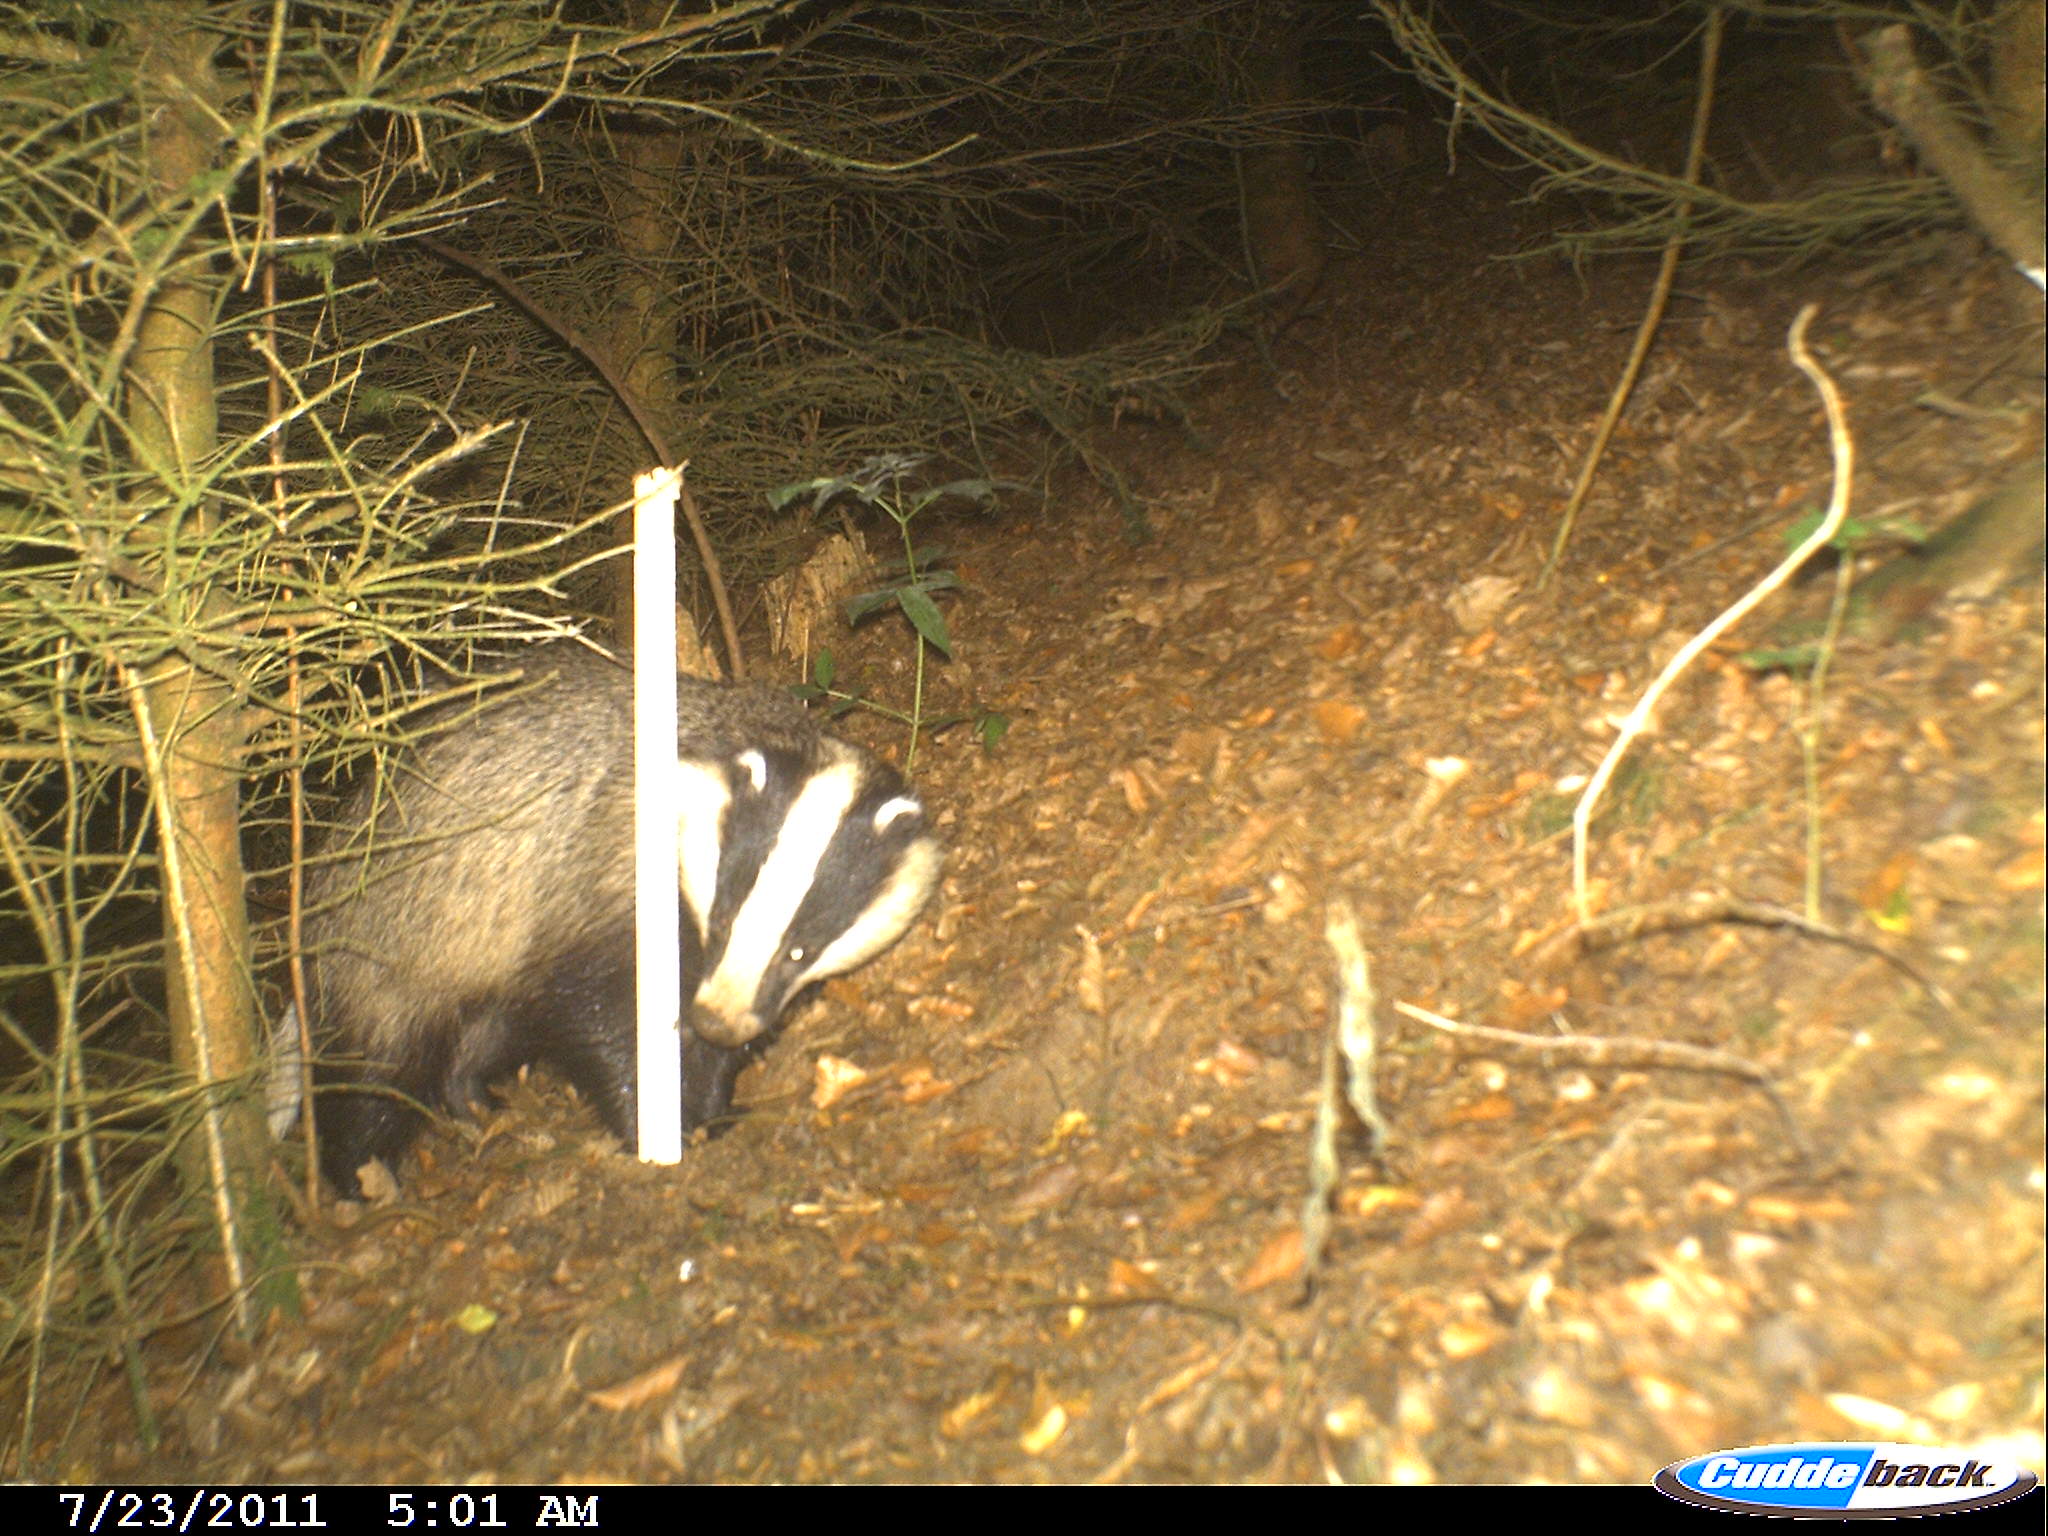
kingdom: Animalia
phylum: Chordata
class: Mammalia
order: Carnivora
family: Mustelidae
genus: Meles
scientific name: Meles meles
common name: Eurasian badger
